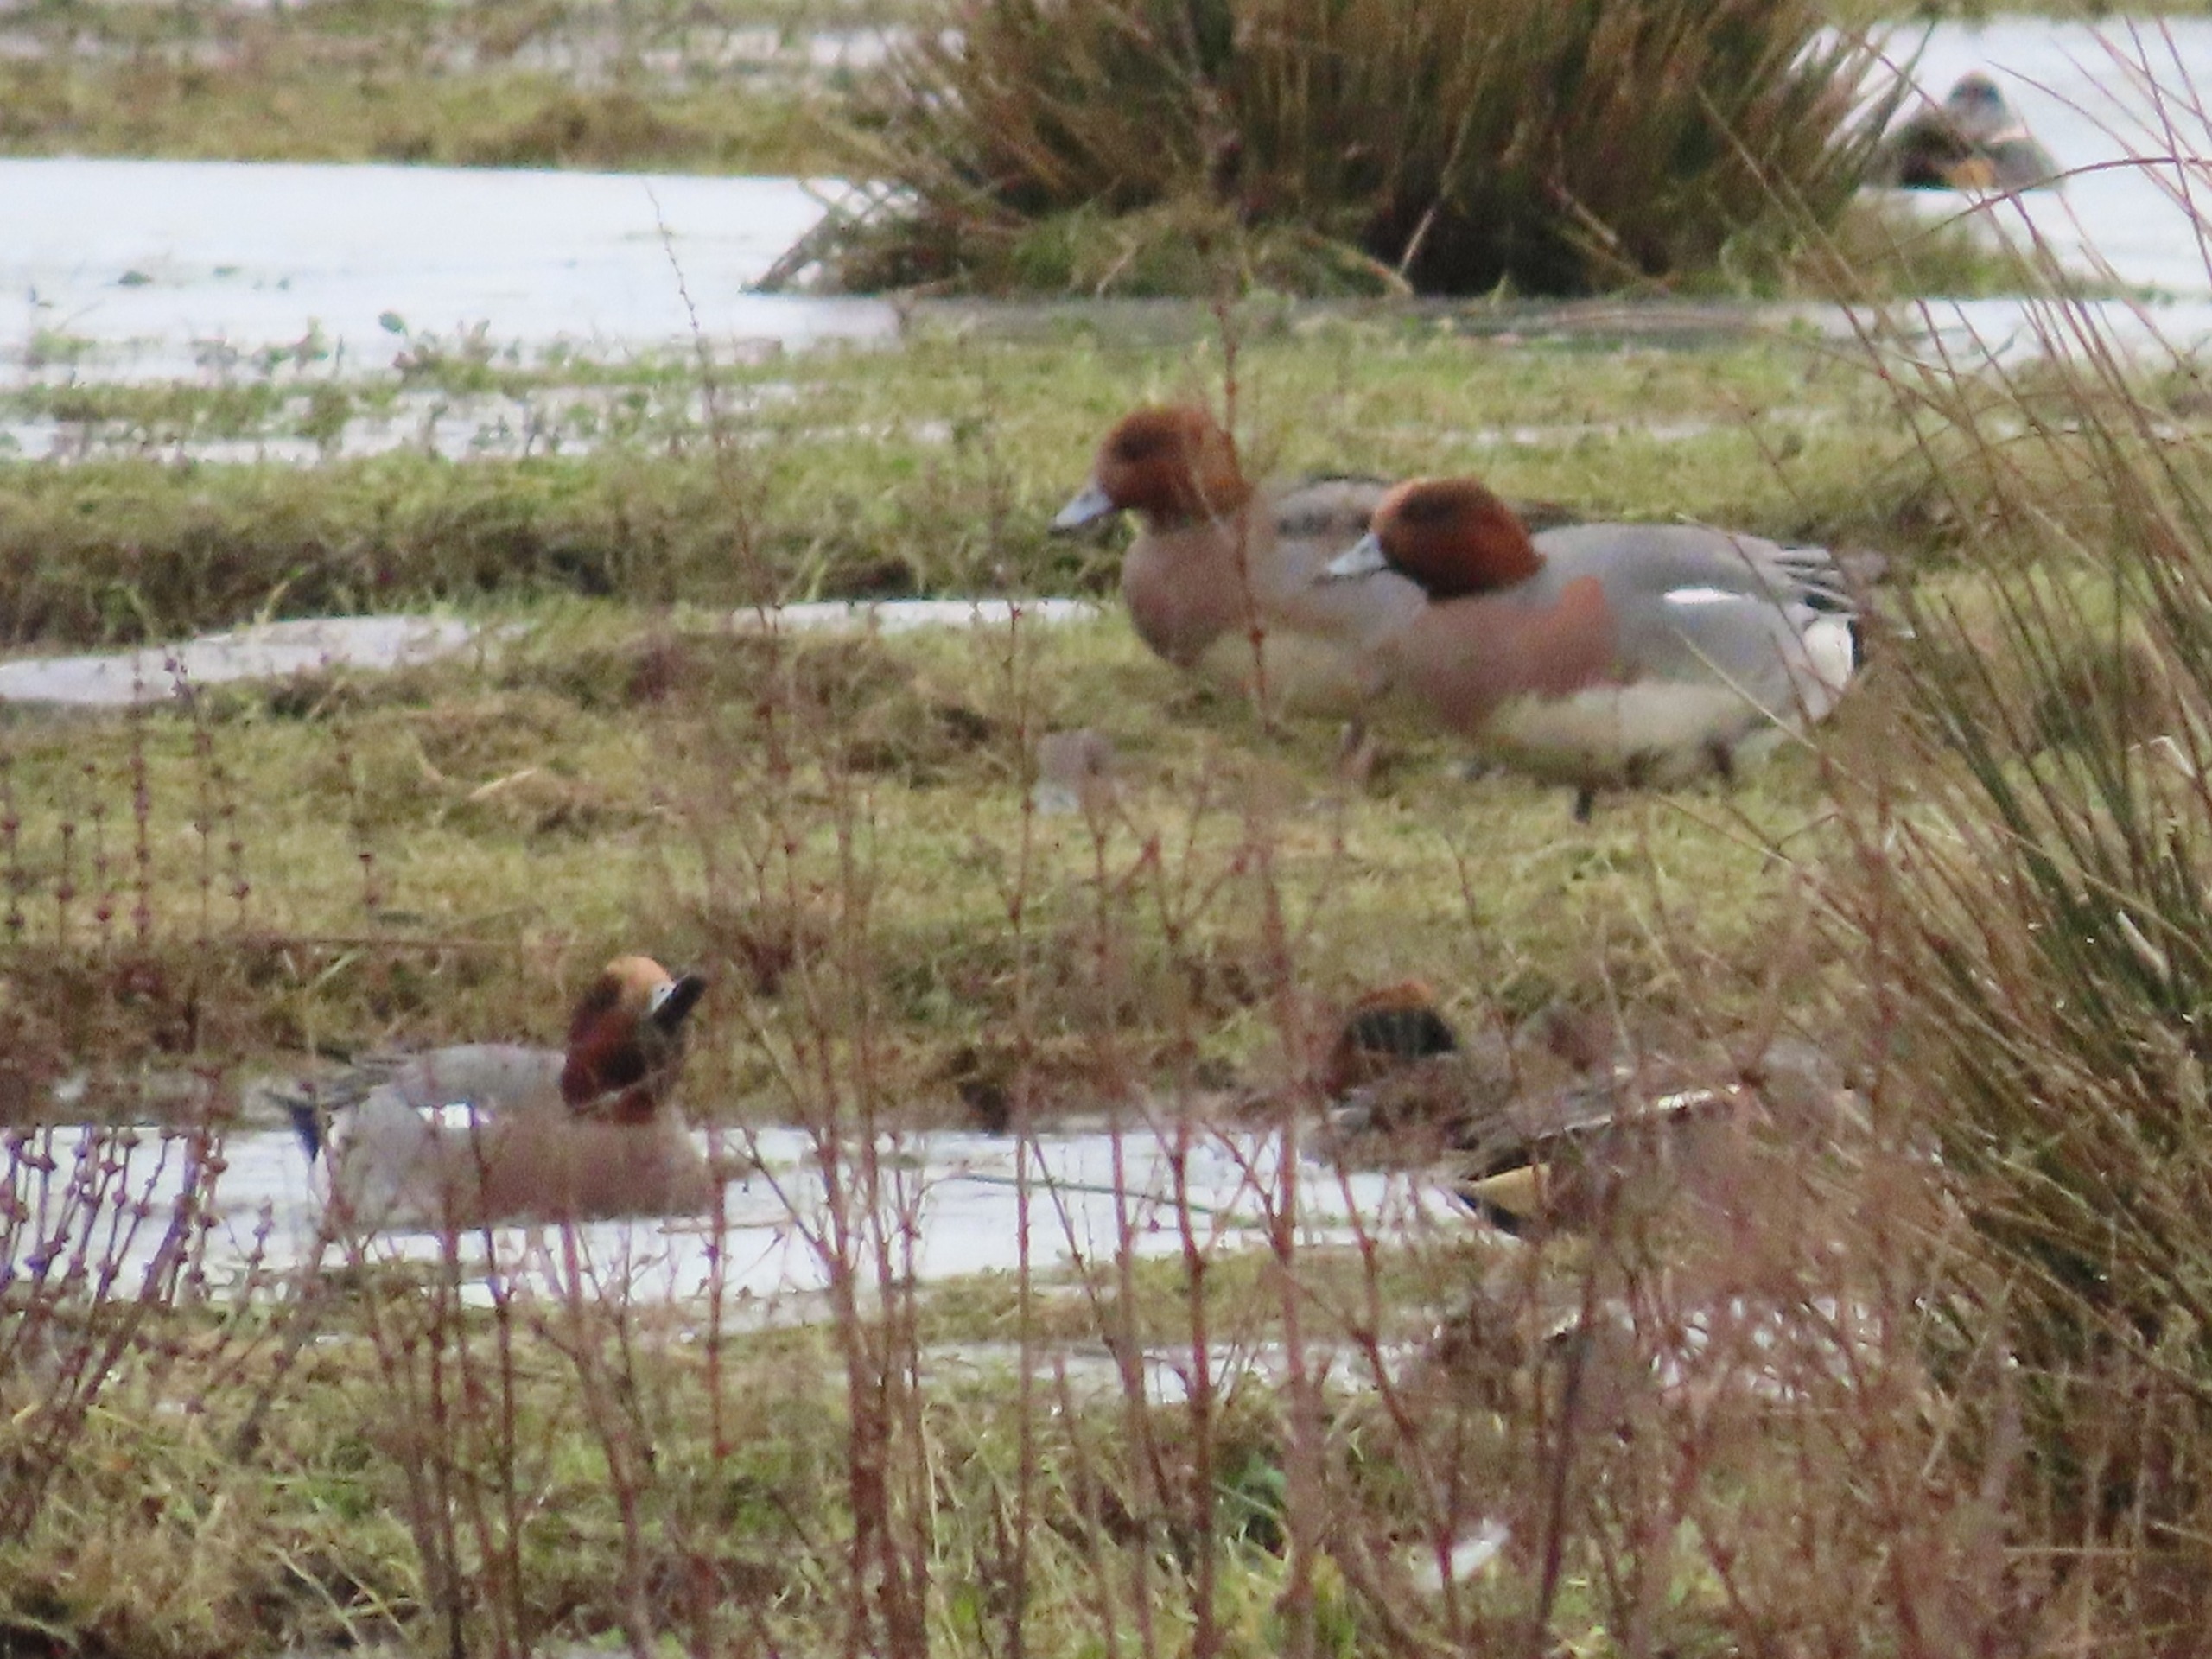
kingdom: Animalia
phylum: Chordata
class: Aves
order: Anseriformes
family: Anatidae
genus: Mareca
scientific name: Mareca penelope
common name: Pibeand
